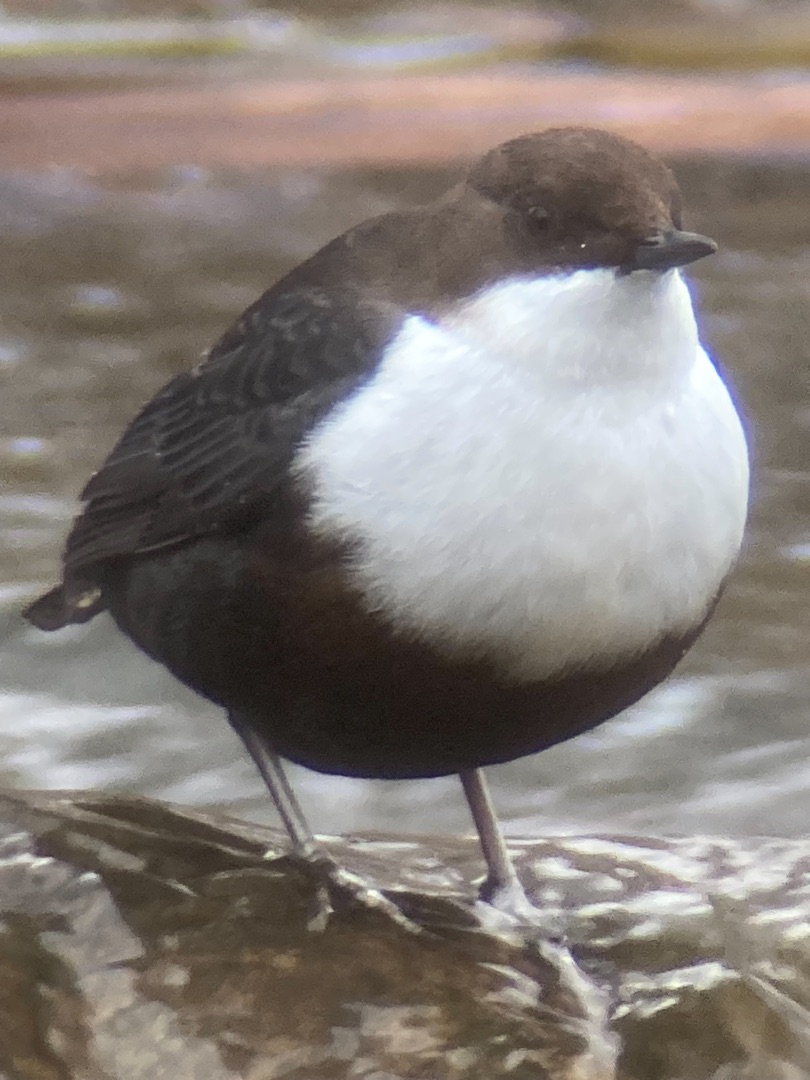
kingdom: Animalia
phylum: Chordata
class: Aves
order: Passeriformes
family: Cinclidae
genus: Cinclus
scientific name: Cinclus cinclus
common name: Vandstær
